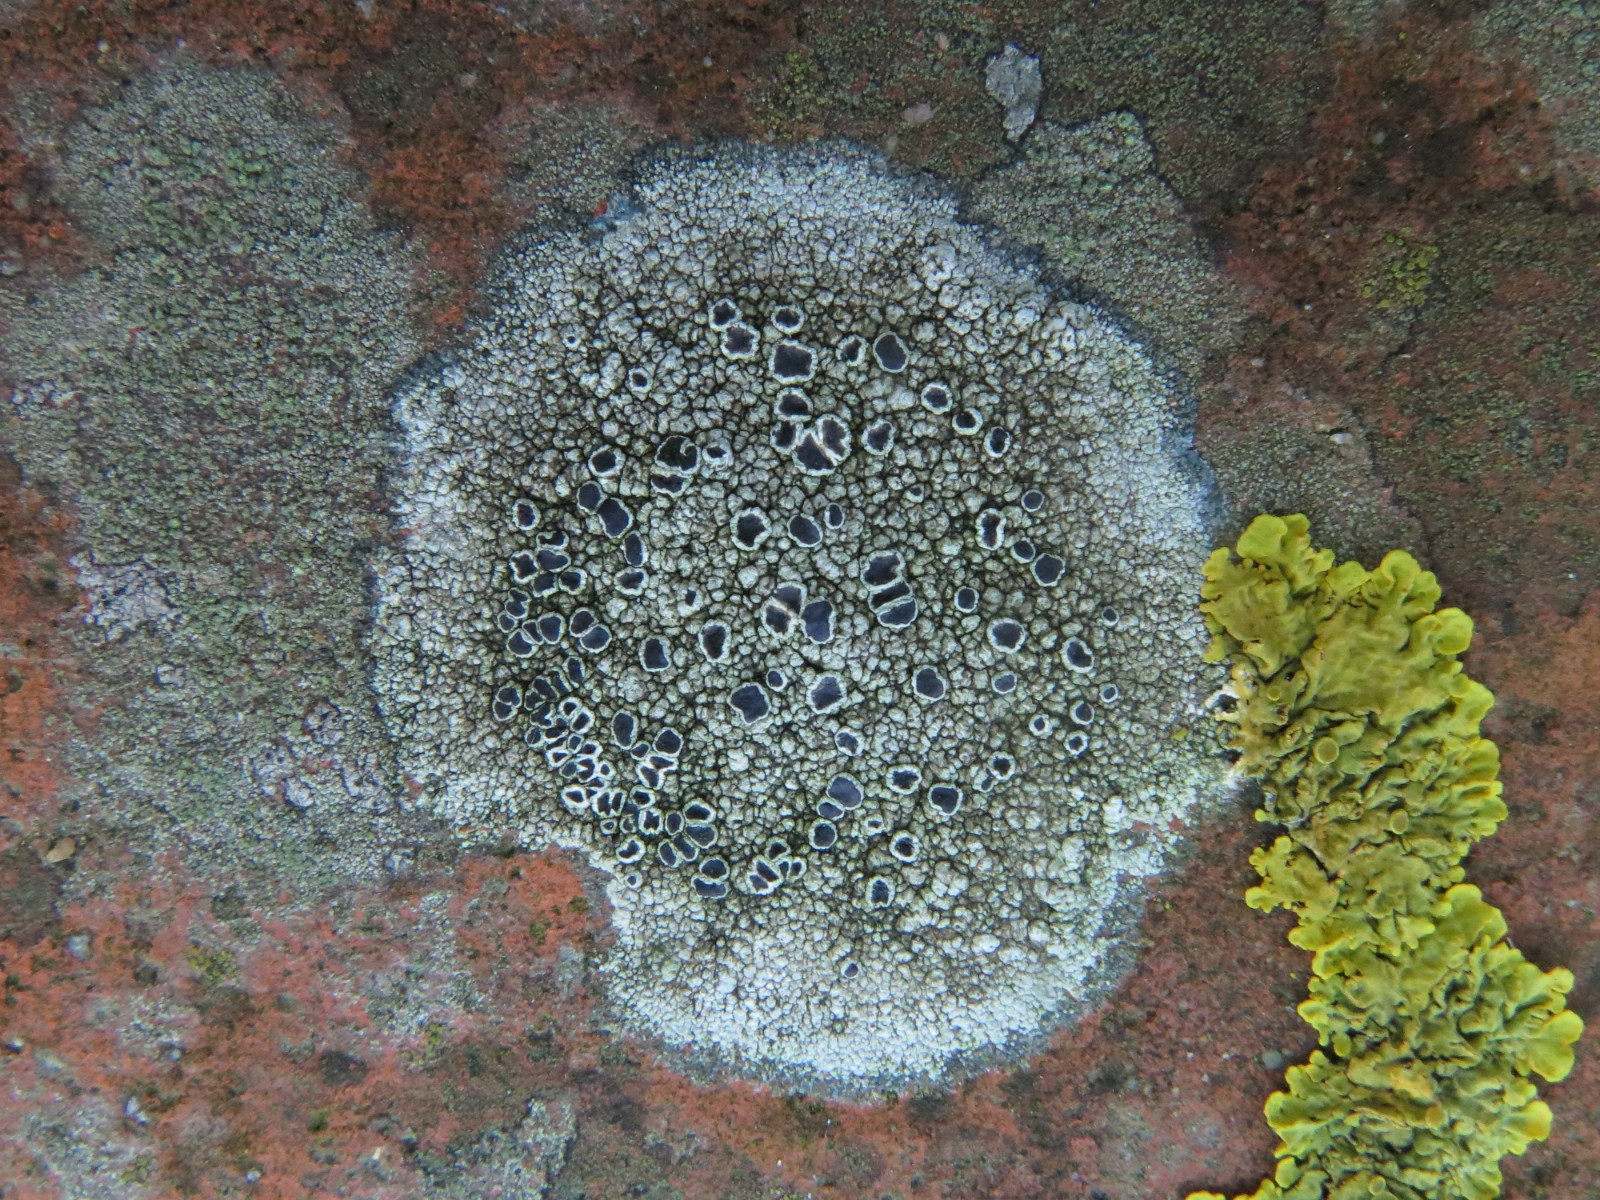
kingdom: Fungi
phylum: Ascomycota
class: Lecanoromycetes
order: Lecanorales
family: Tephromelataceae
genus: Tephromela
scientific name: Tephromela atra
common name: sortfrugtet kantskivelav
